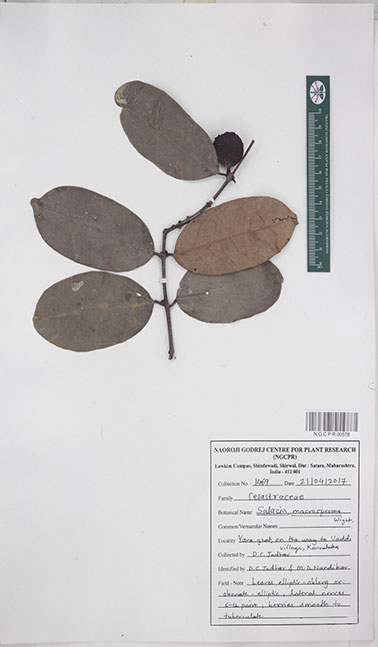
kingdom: Plantae
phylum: Tracheophyta
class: Magnoliopsida
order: Celastrales
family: Celastraceae
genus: Salacia
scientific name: Salacia macrosperma
